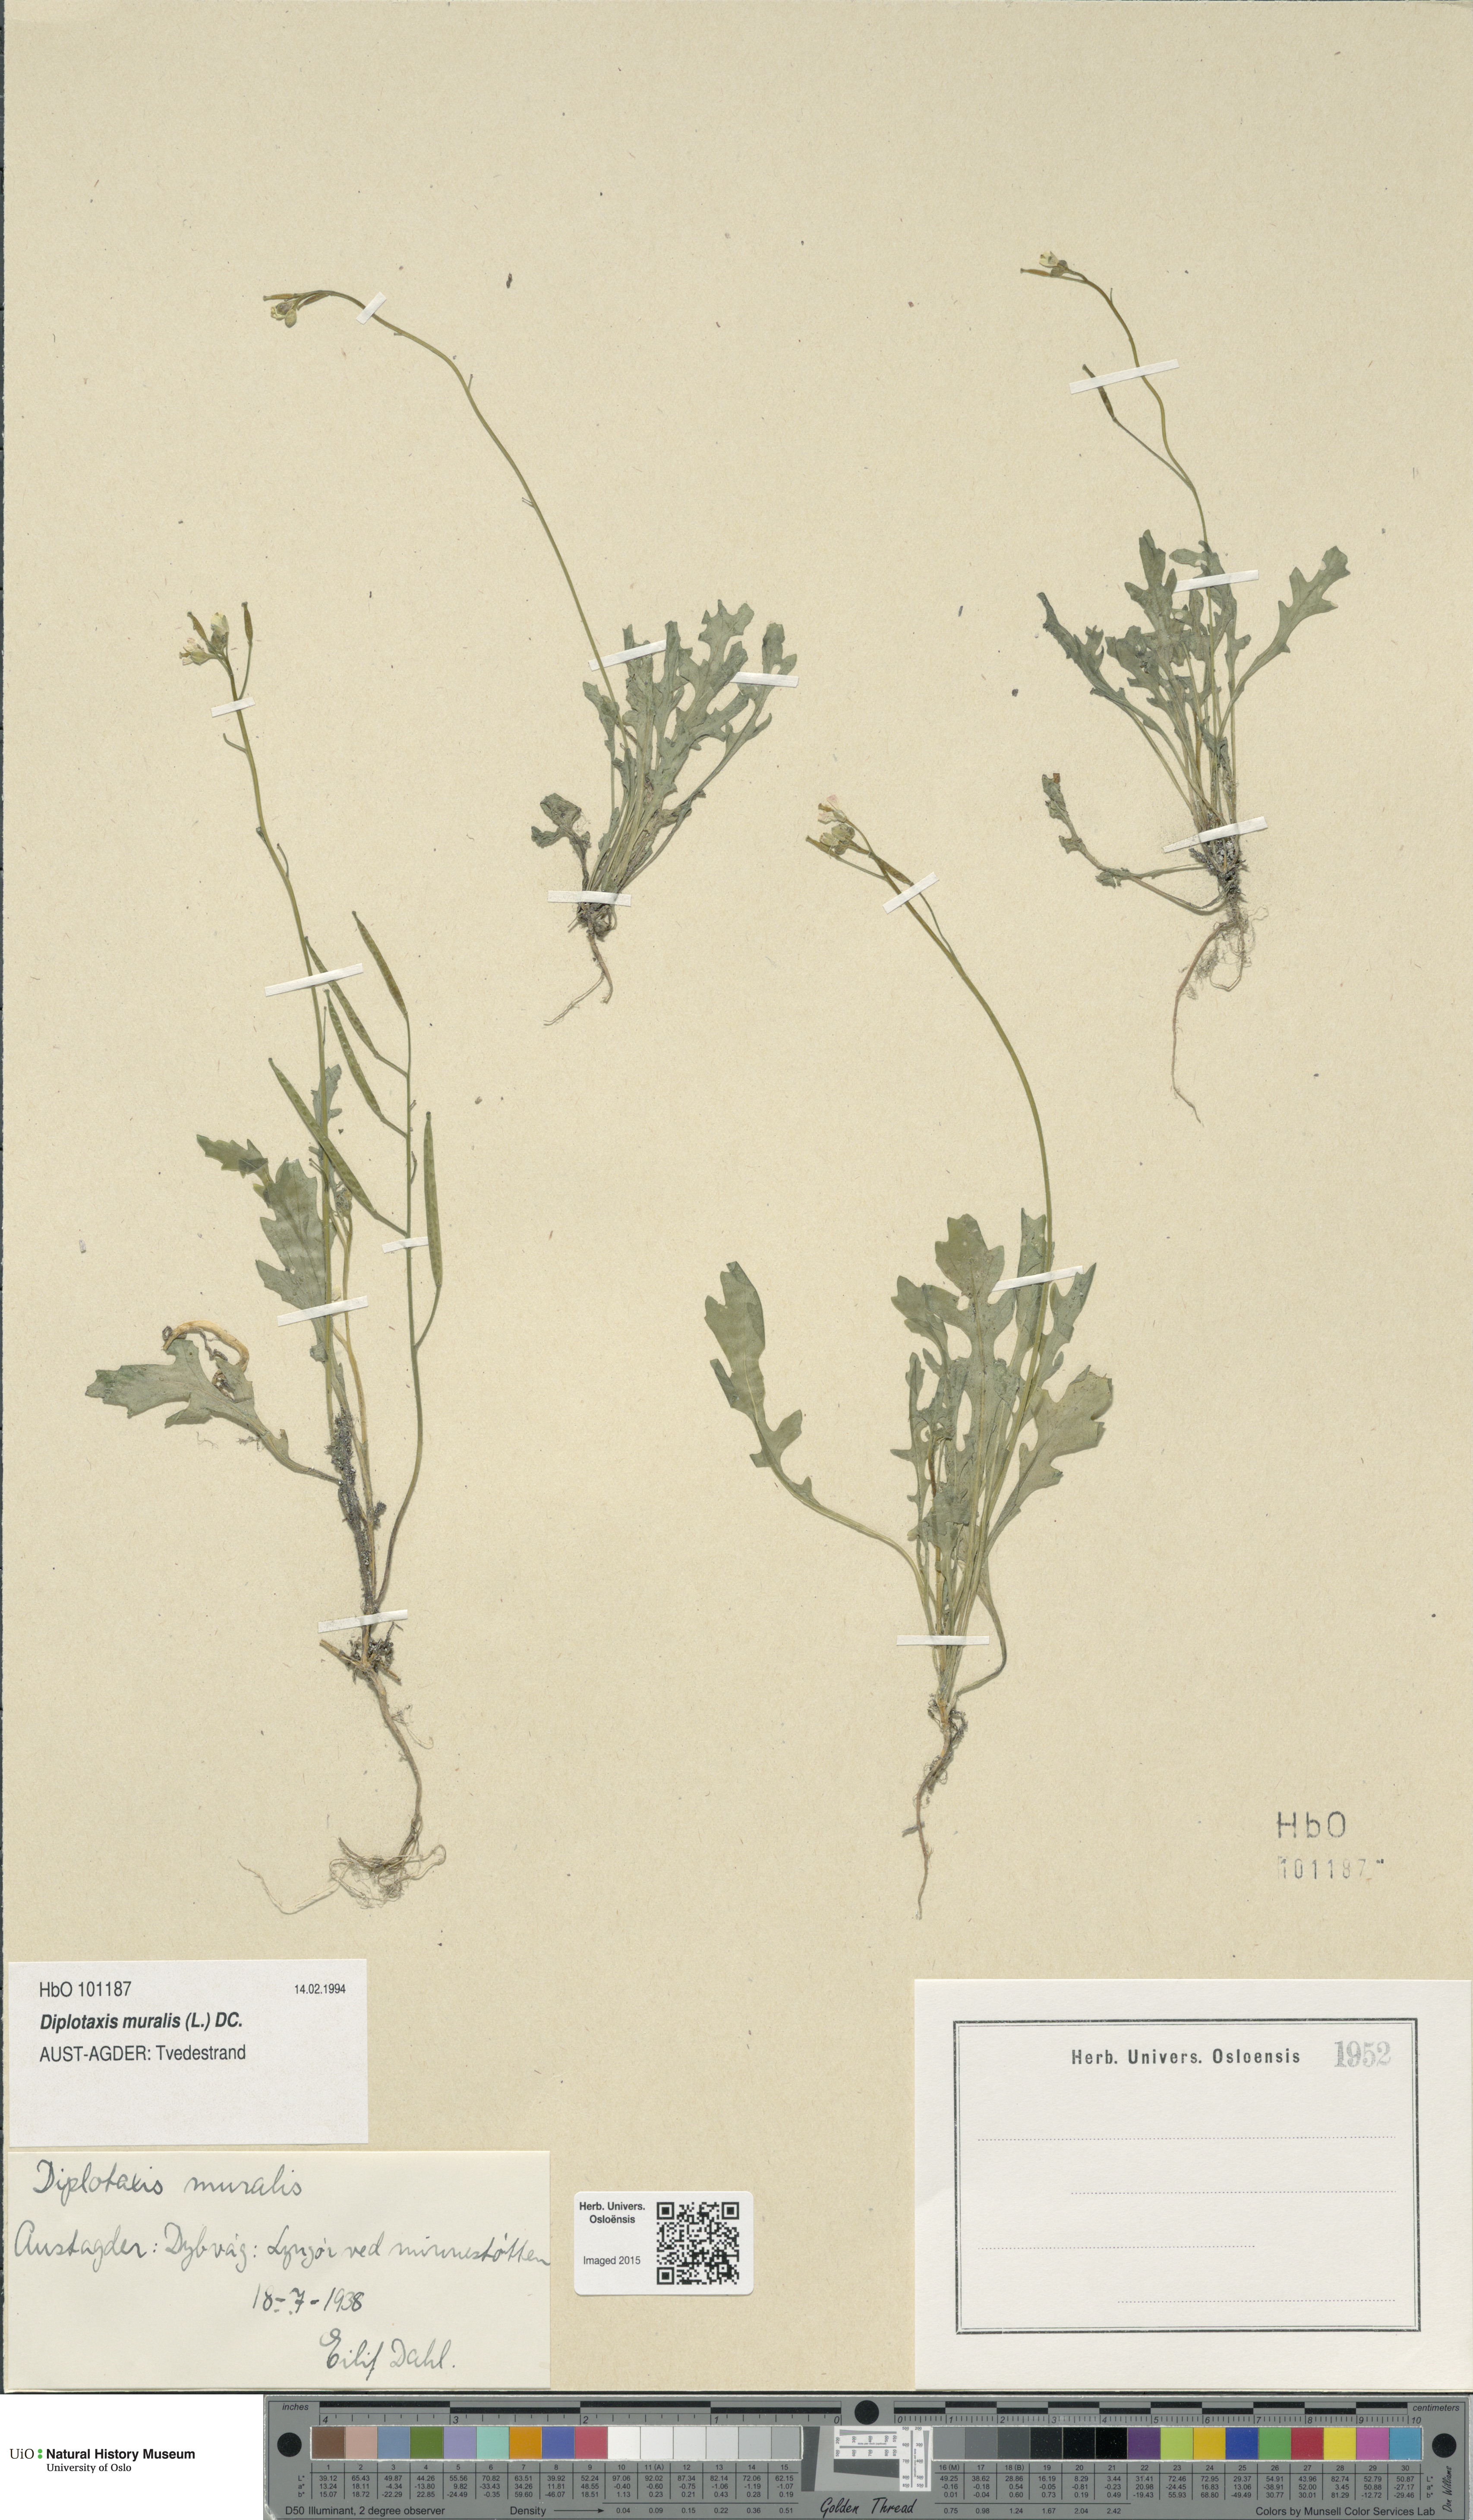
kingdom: Plantae
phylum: Tracheophyta
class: Magnoliopsida
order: Brassicales
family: Brassicaceae
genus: Diplotaxis
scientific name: Diplotaxis muralis
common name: Annual wall-rocket
